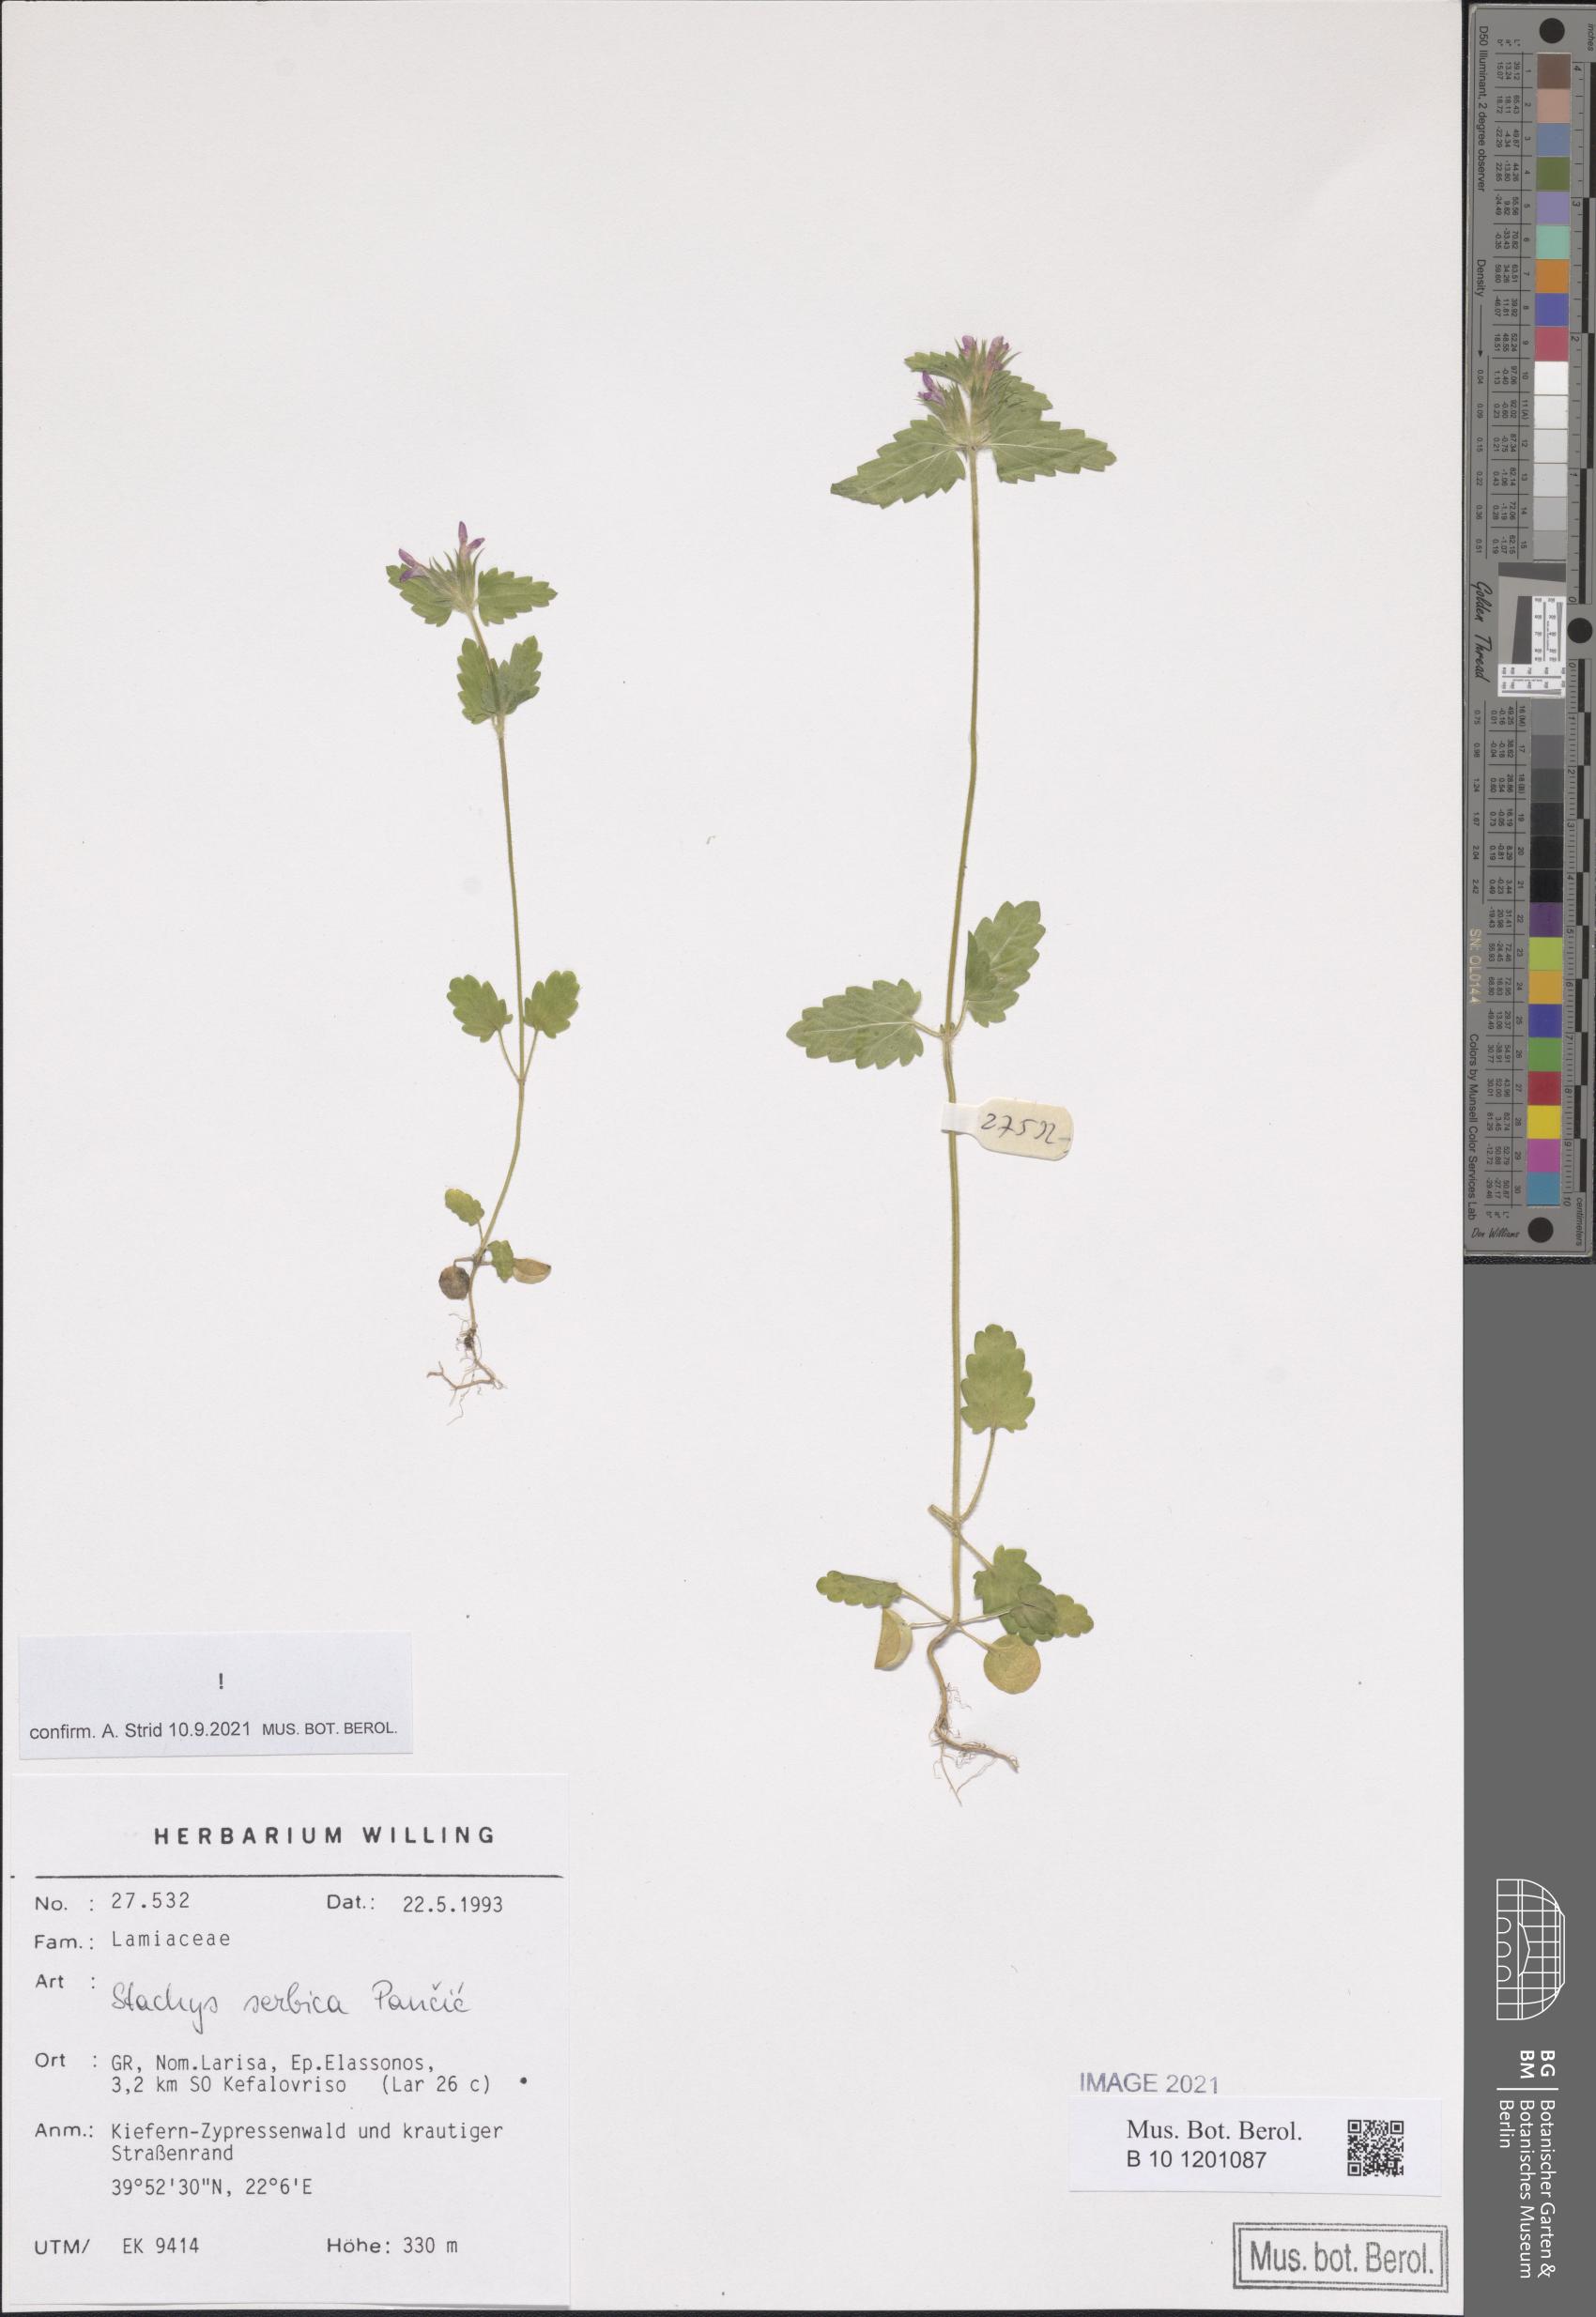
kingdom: Plantae
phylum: Tracheophyta
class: Magnoliopsida
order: Lamiales
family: Lamiaceae
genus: Stachys
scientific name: Stachys serbica
